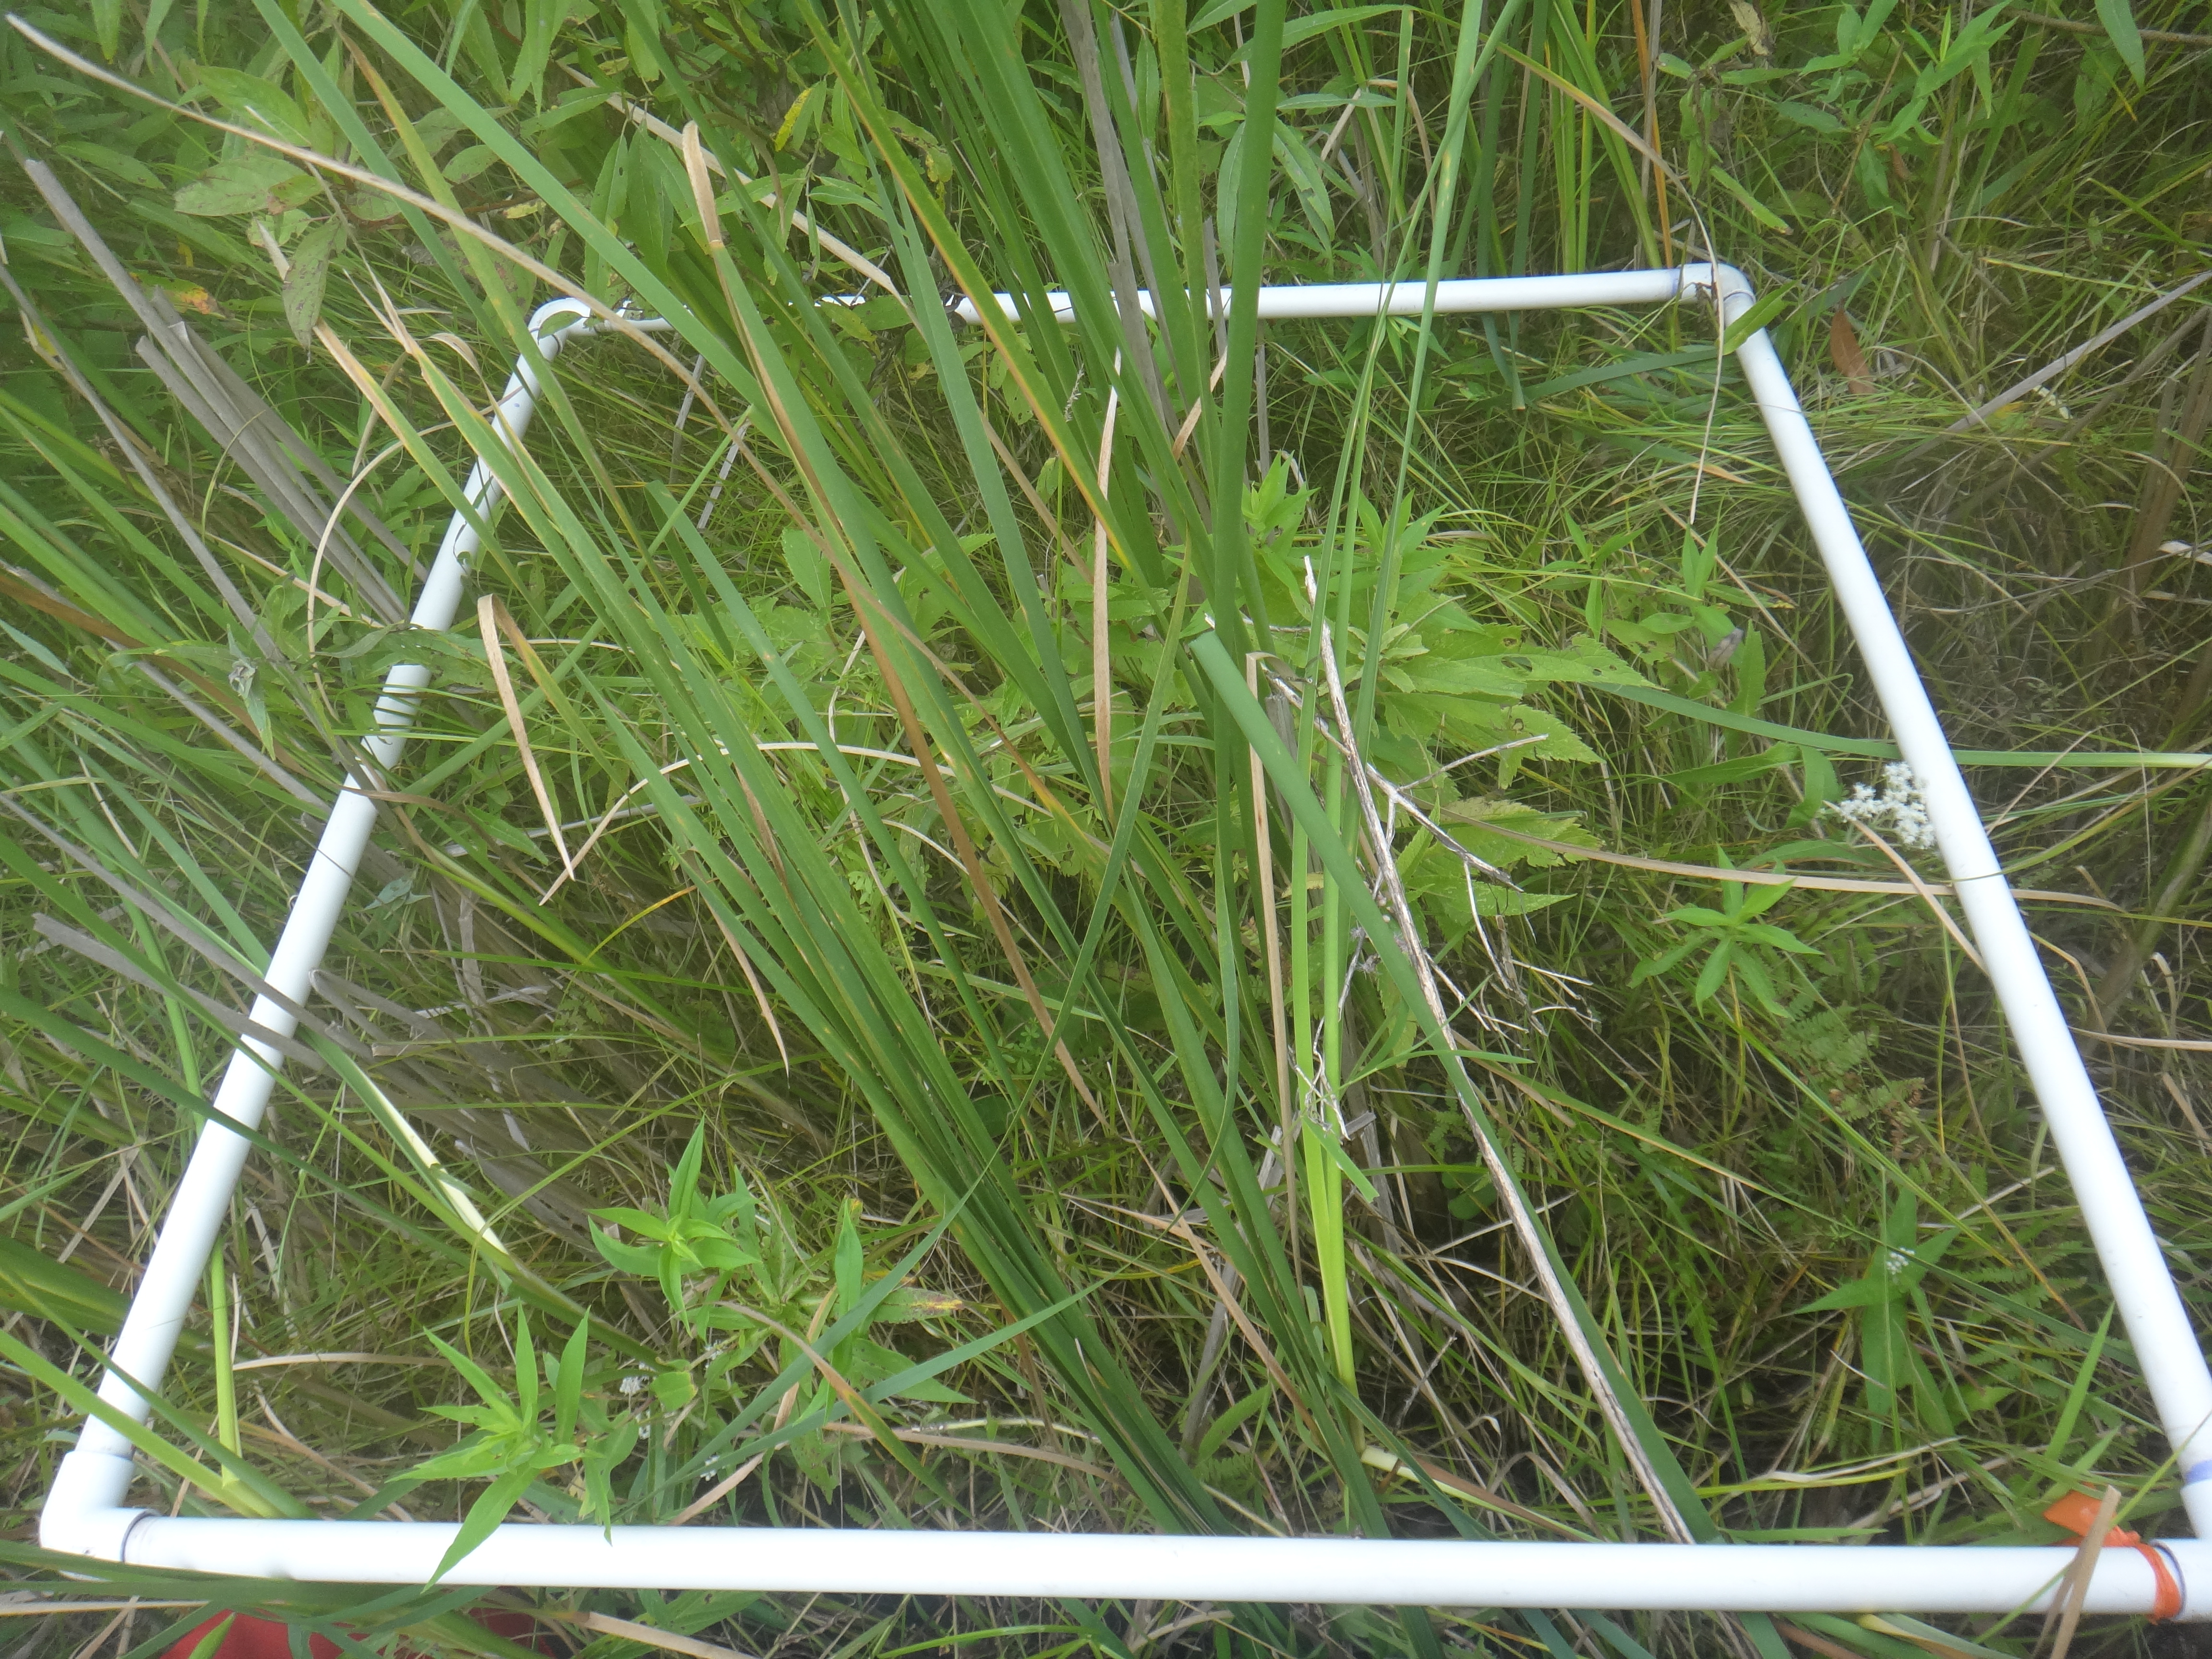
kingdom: Plantae
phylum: Tracheophyta
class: Magnoliopsida
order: Asterales
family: Asteraceae
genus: Symphyotrichum
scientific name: Symphyotrichum firmum
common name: Shining aster
